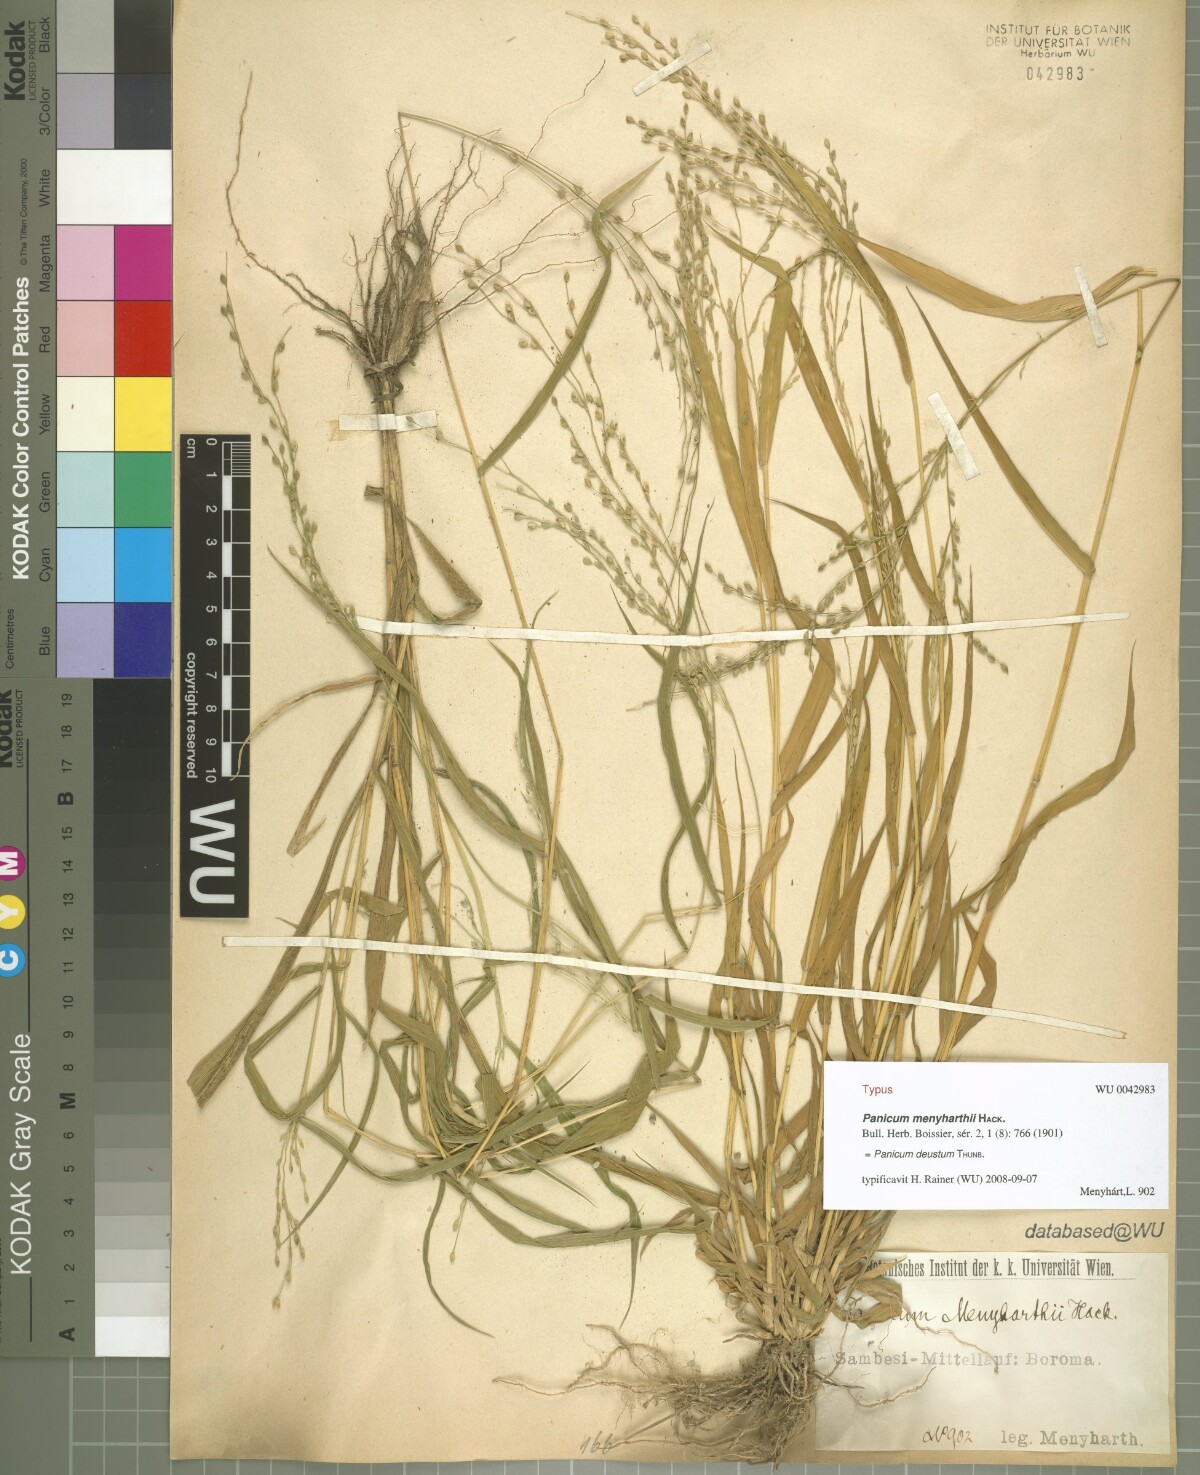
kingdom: Plantae
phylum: Tracheophyta
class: Liliopsida
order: Poales
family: Poaceae
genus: Panicum
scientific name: Panicum deustum
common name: Reed panicum
